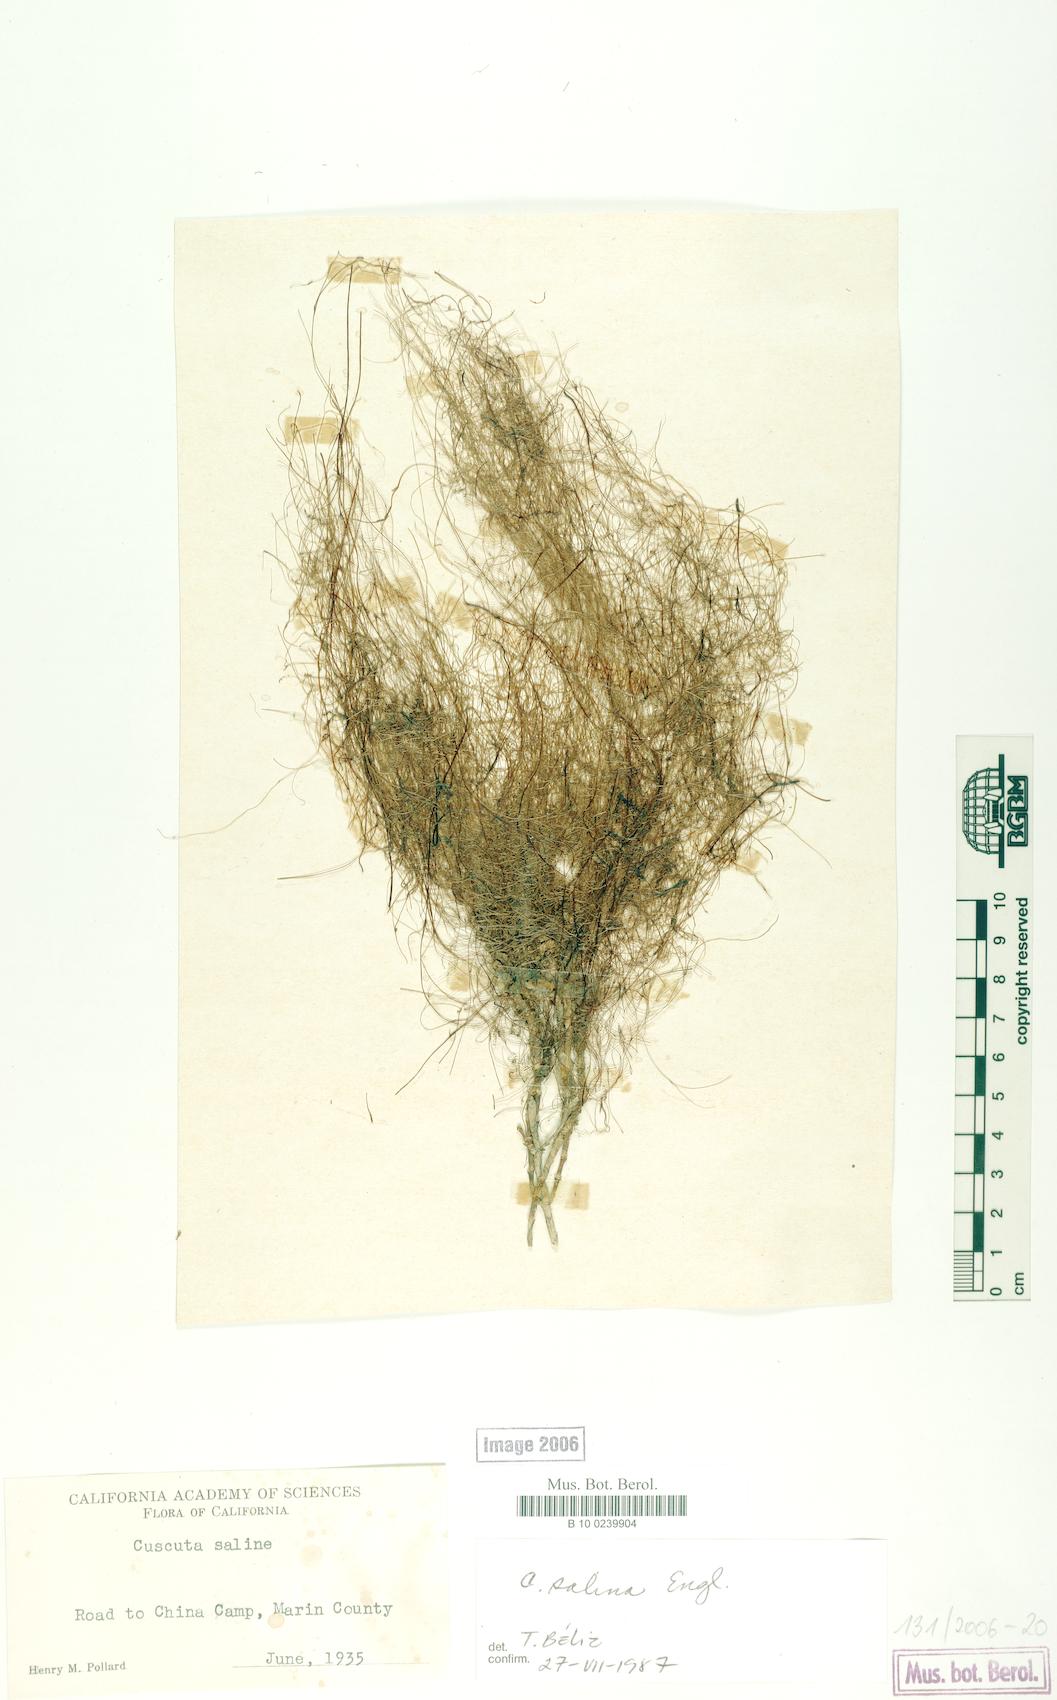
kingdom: Plantae
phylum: Tracheophyta
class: Magnoliopsida
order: Solanales
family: Convolvulaceae
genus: Cuscuta
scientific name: Cuscuta salina
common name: Goldenthread
